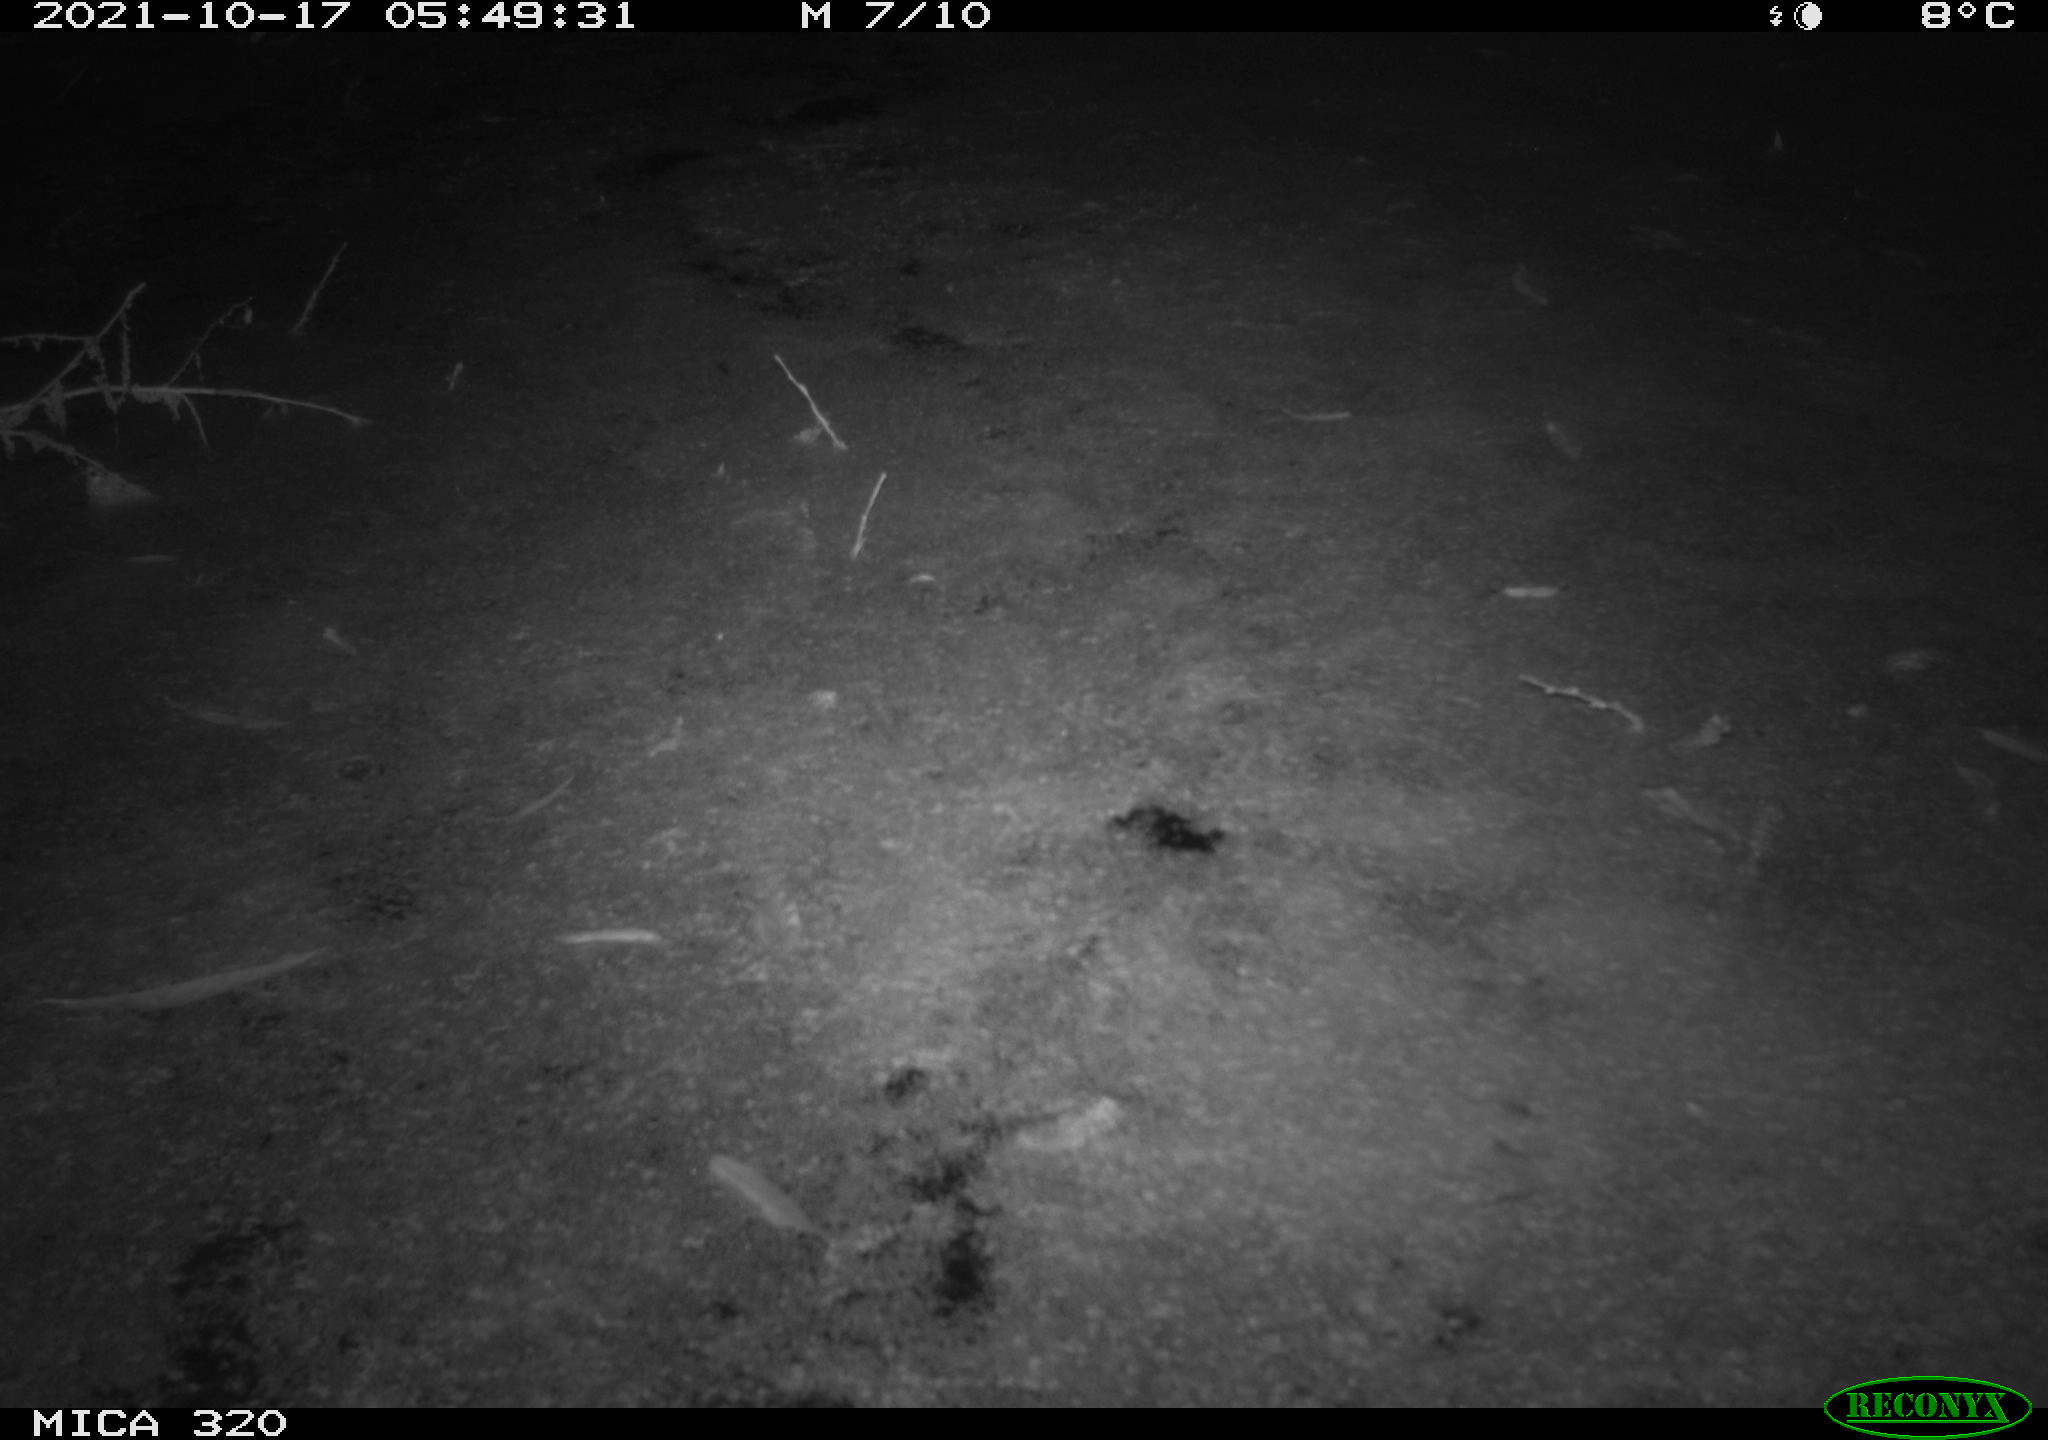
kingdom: Animalia
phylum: Chordata
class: Mammalia
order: Rodentia
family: Muridae
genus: Rattus
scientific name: Rattus norvegicus
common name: Brown rat
